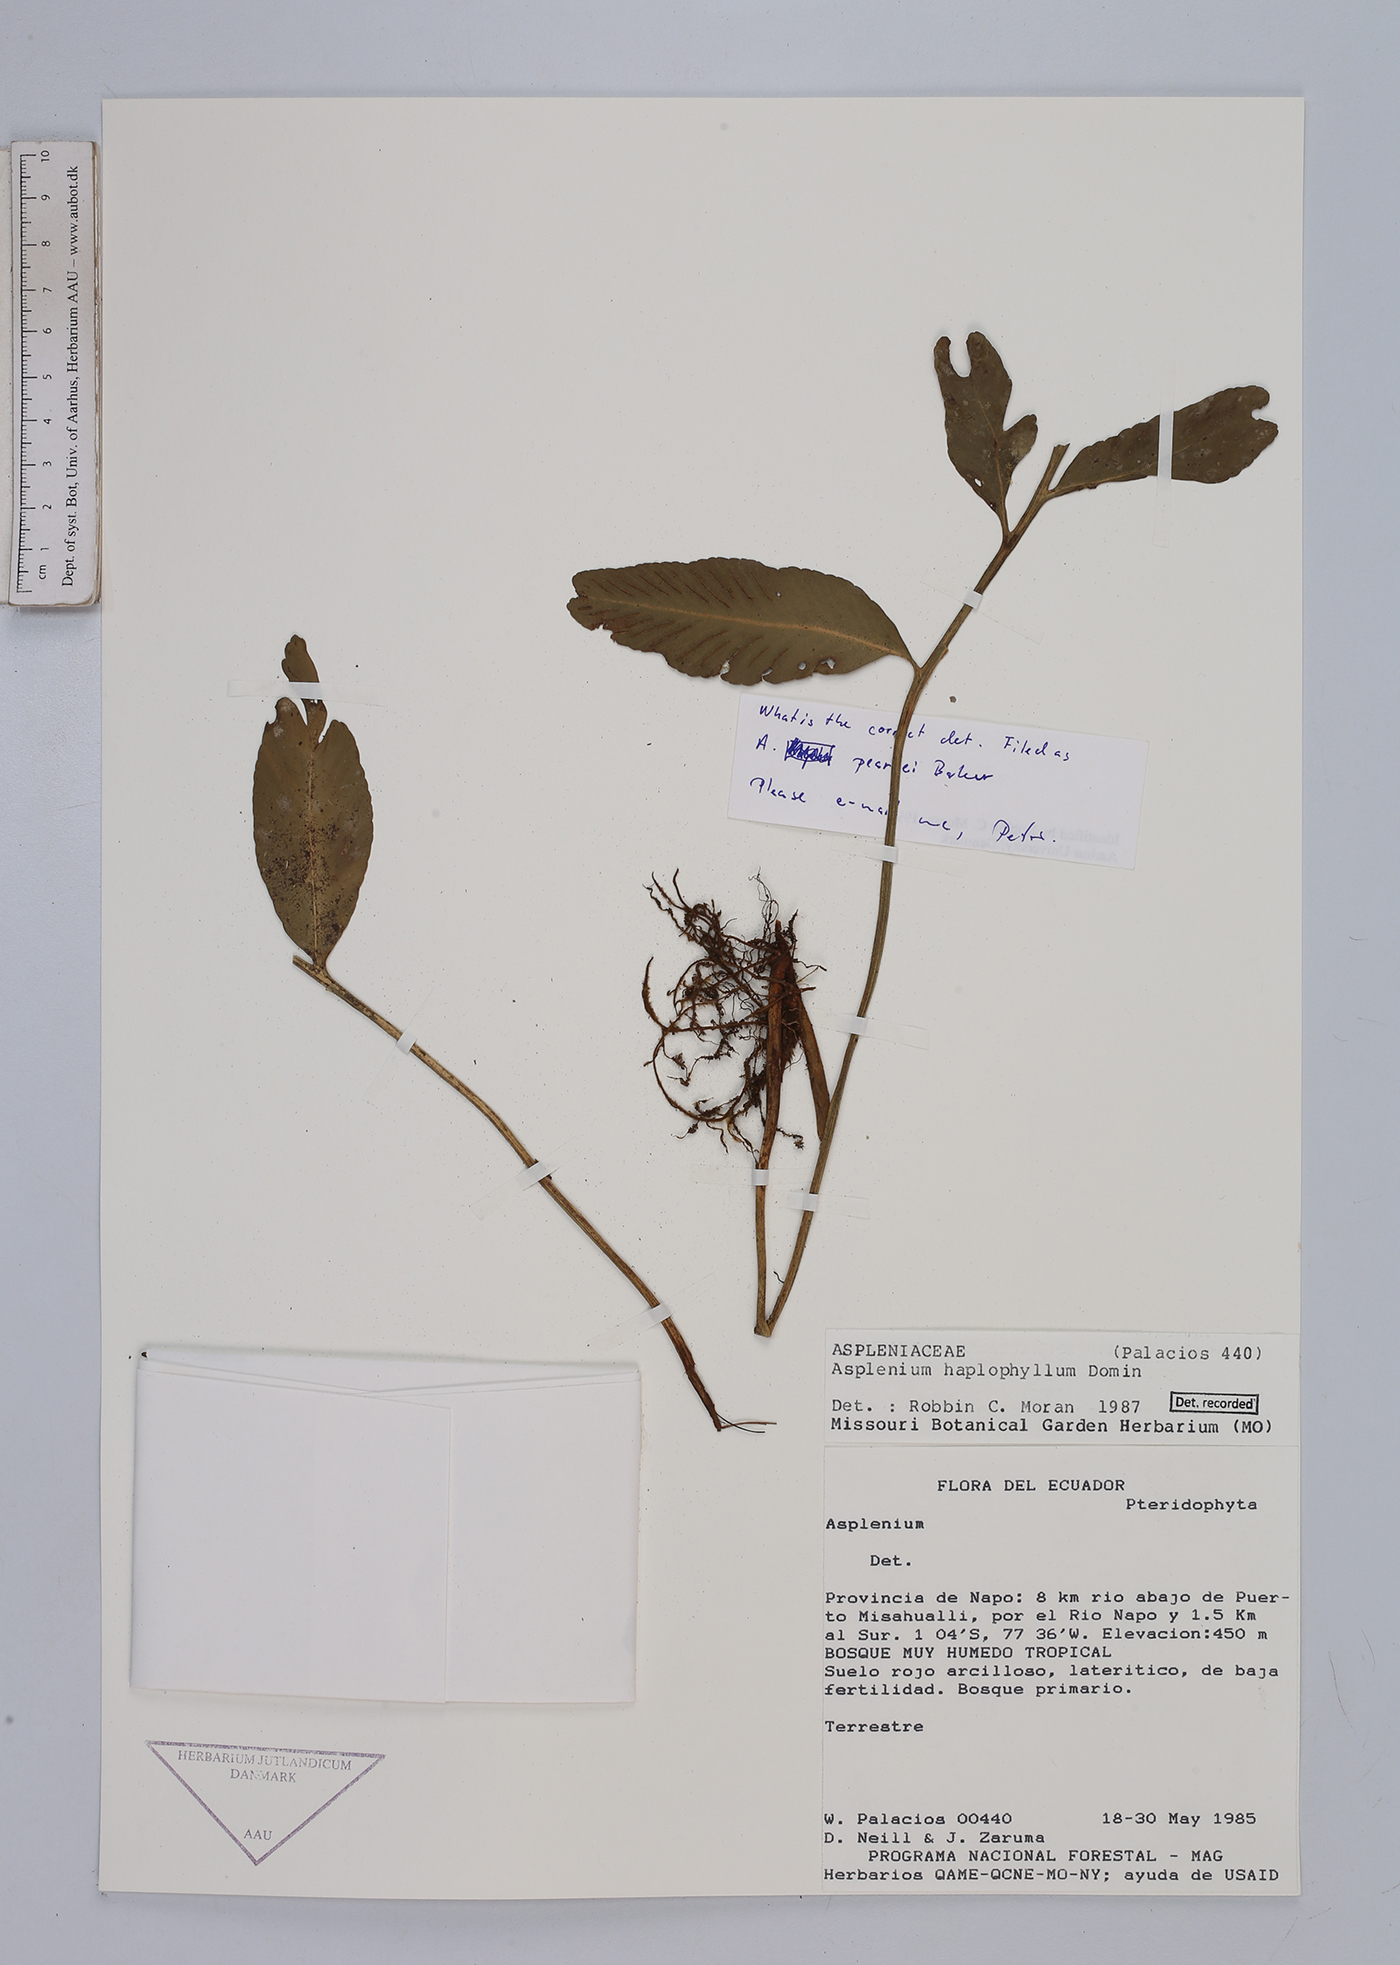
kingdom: Plantae
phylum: Tracheophyta
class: Polypodiopsida
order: Polypodiales
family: Aspleniaceae
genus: Asplenium
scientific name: Asplenium
